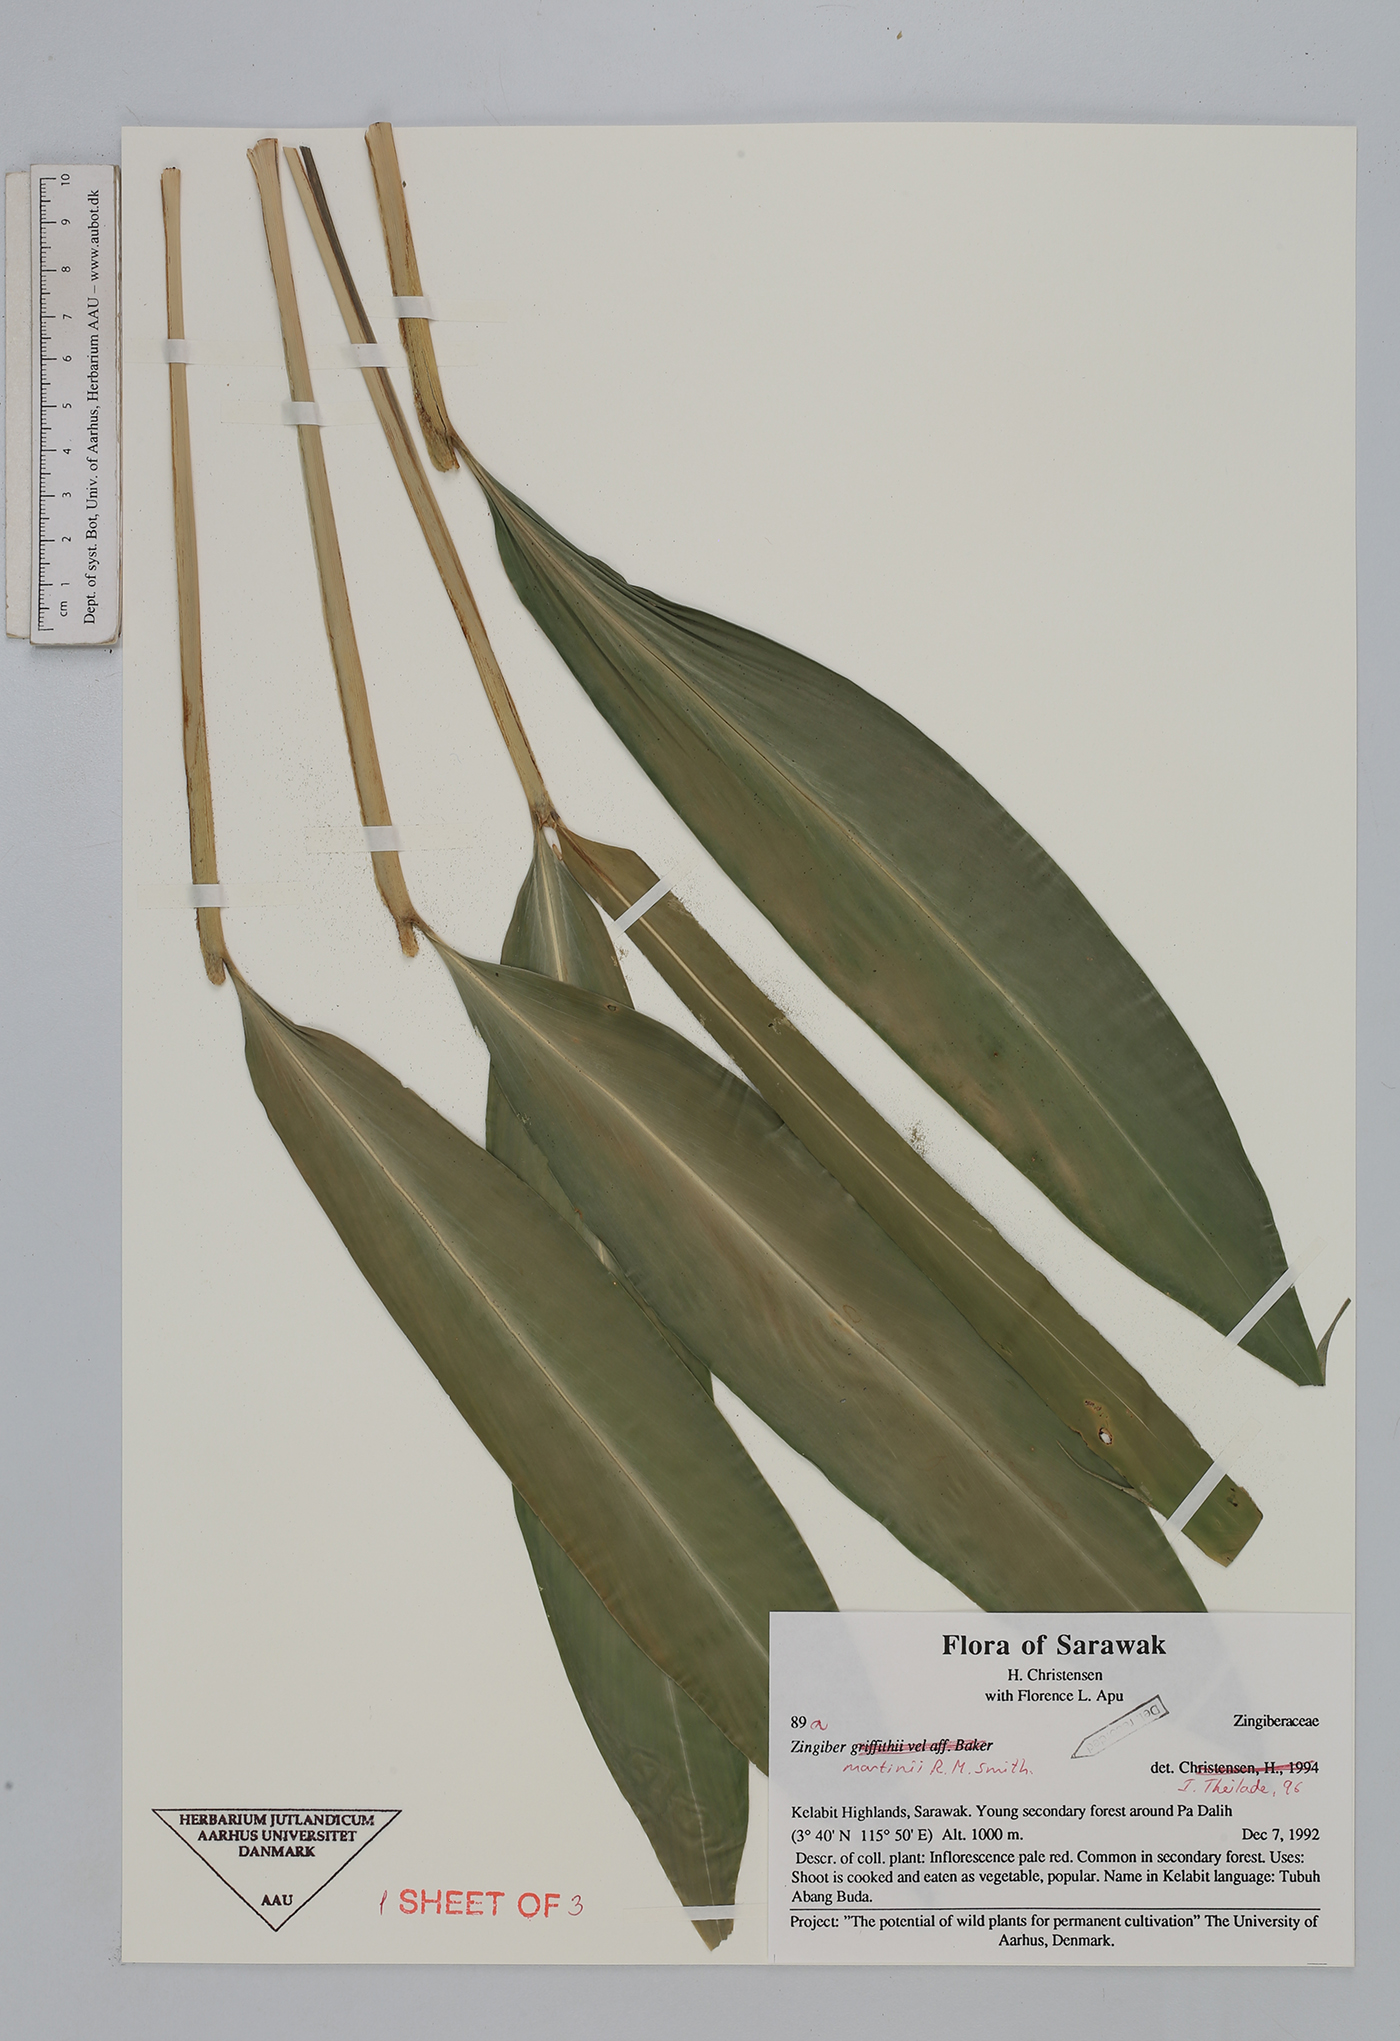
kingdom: Plantae
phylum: Tracheophyta
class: Liliopsida
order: Zingiberales
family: Zingiberaceae
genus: Zingiber
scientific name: Zingiber martini
